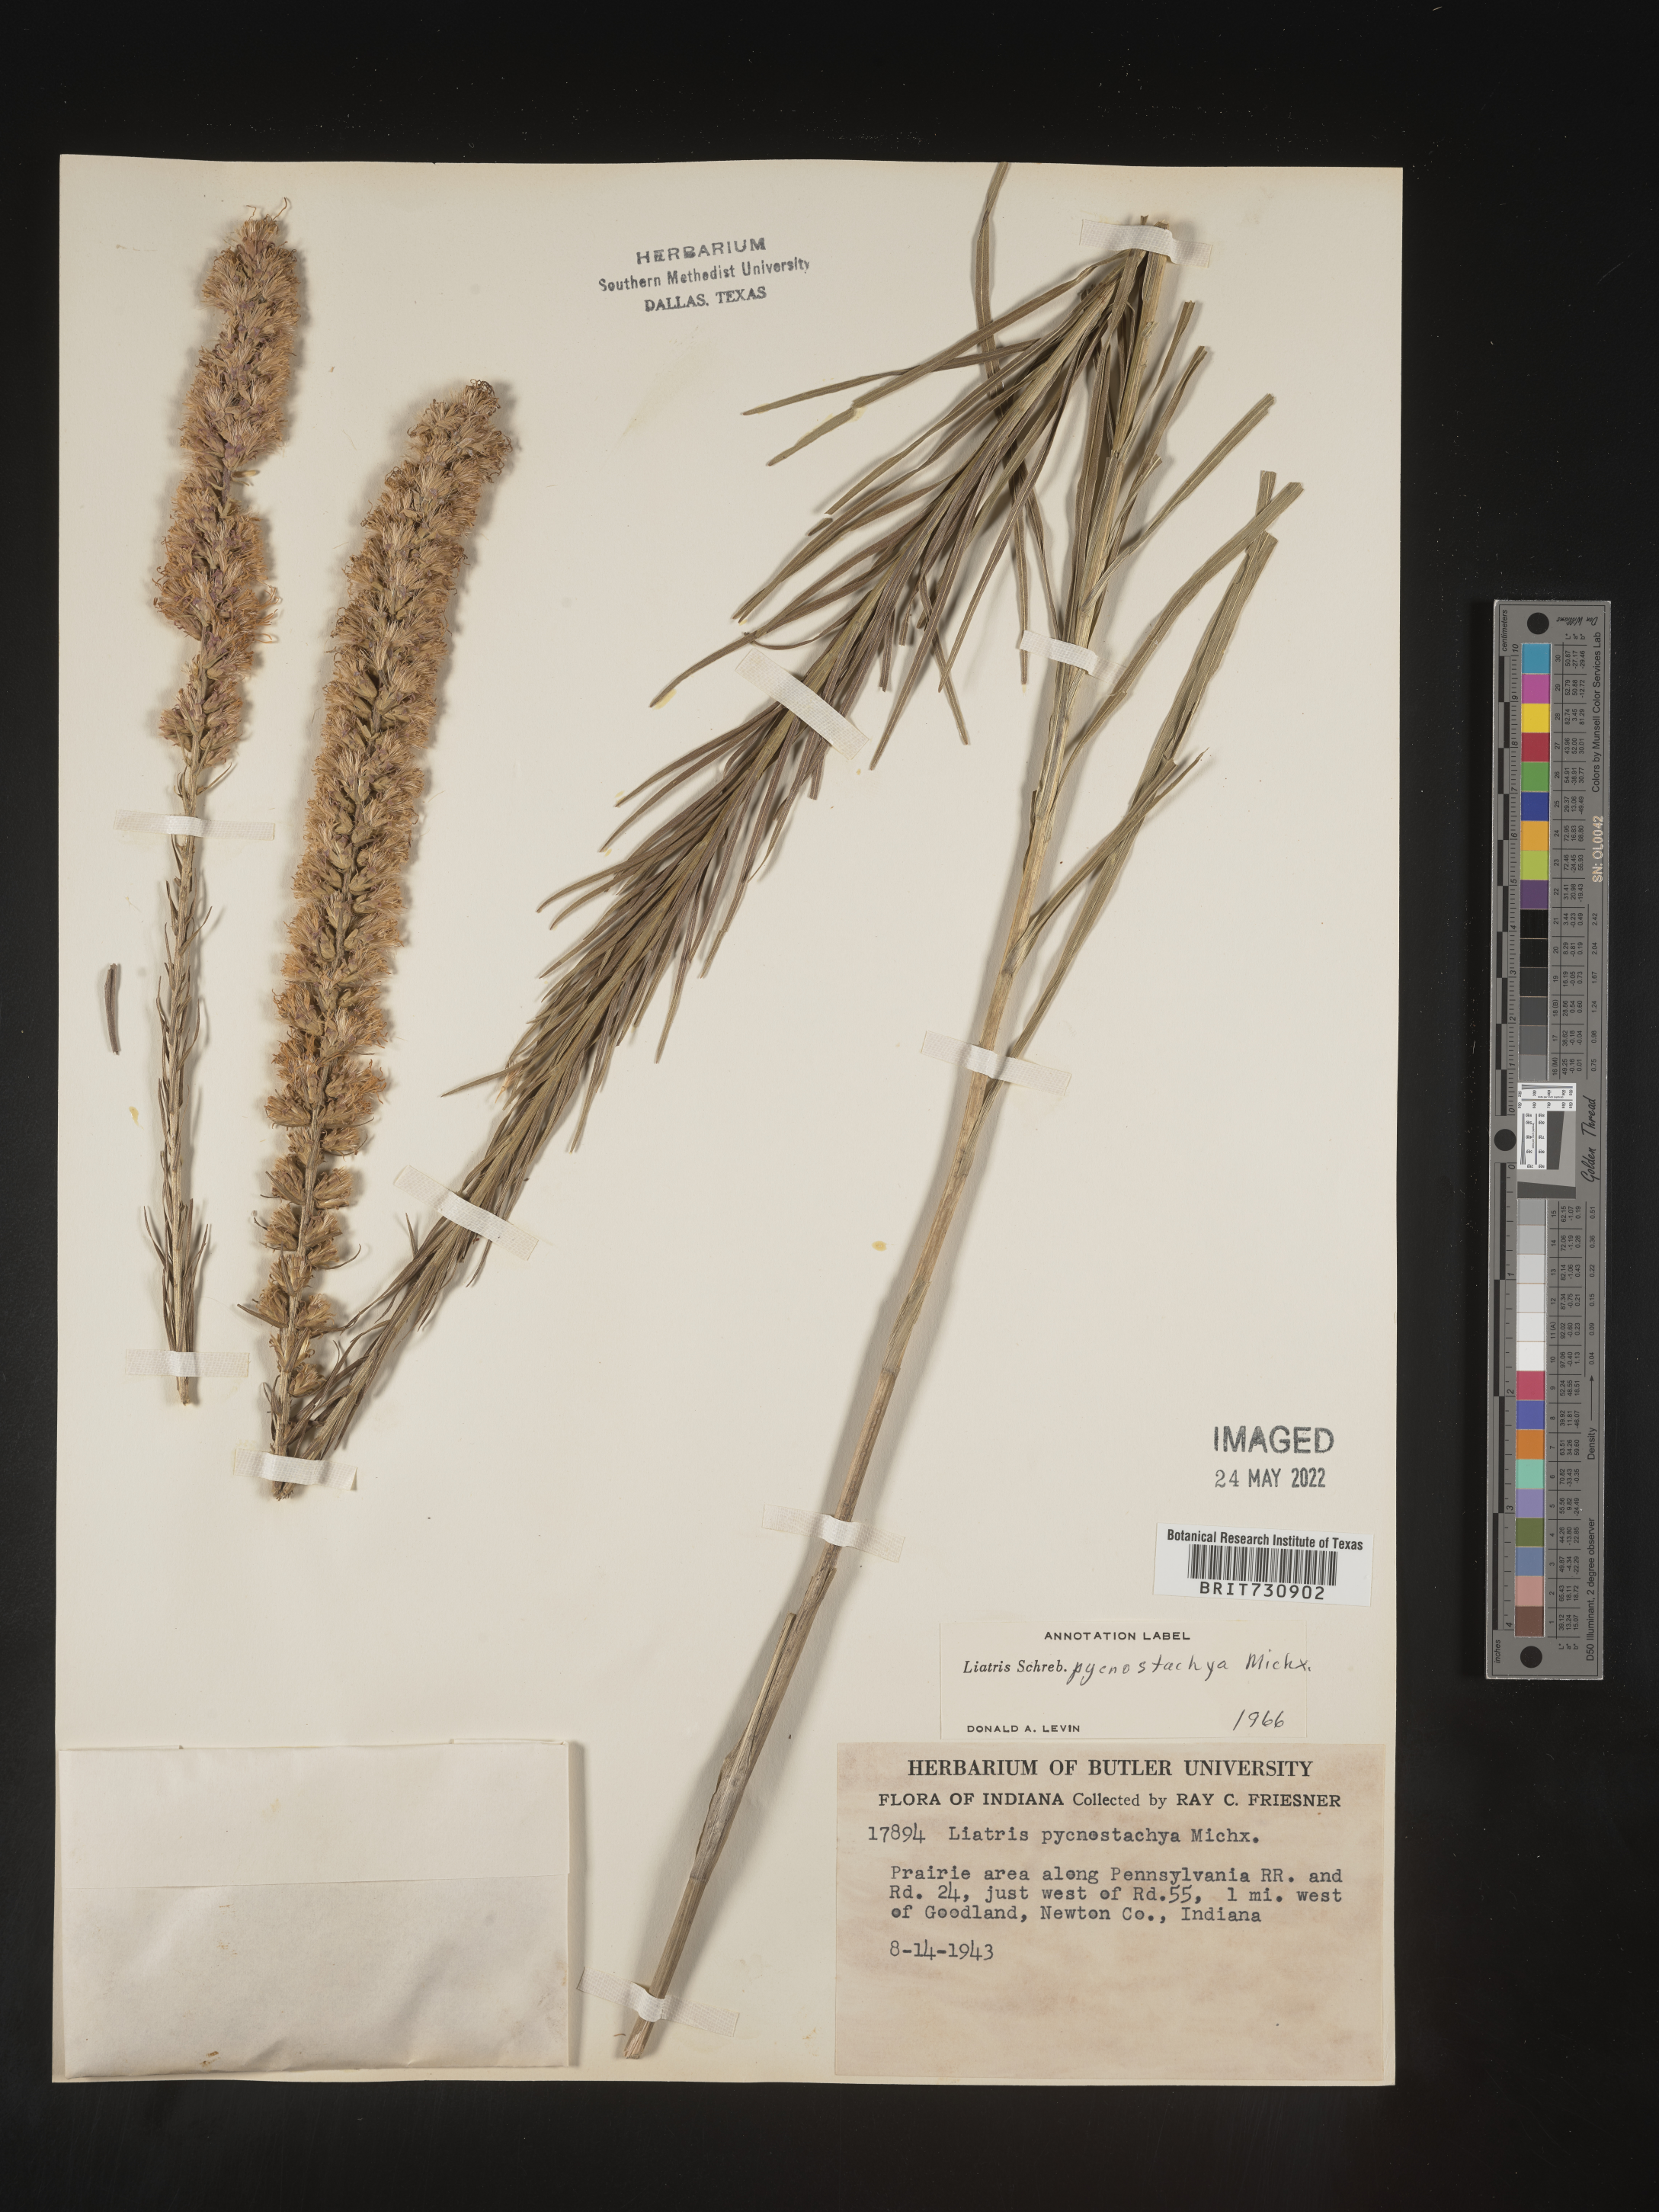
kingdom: Plantae
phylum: Tracheophyta
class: Magnoliopsida
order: Asterales
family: Asteraceae
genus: Liatris
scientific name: Liatris pycnostachya
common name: Cattail gayfeather
